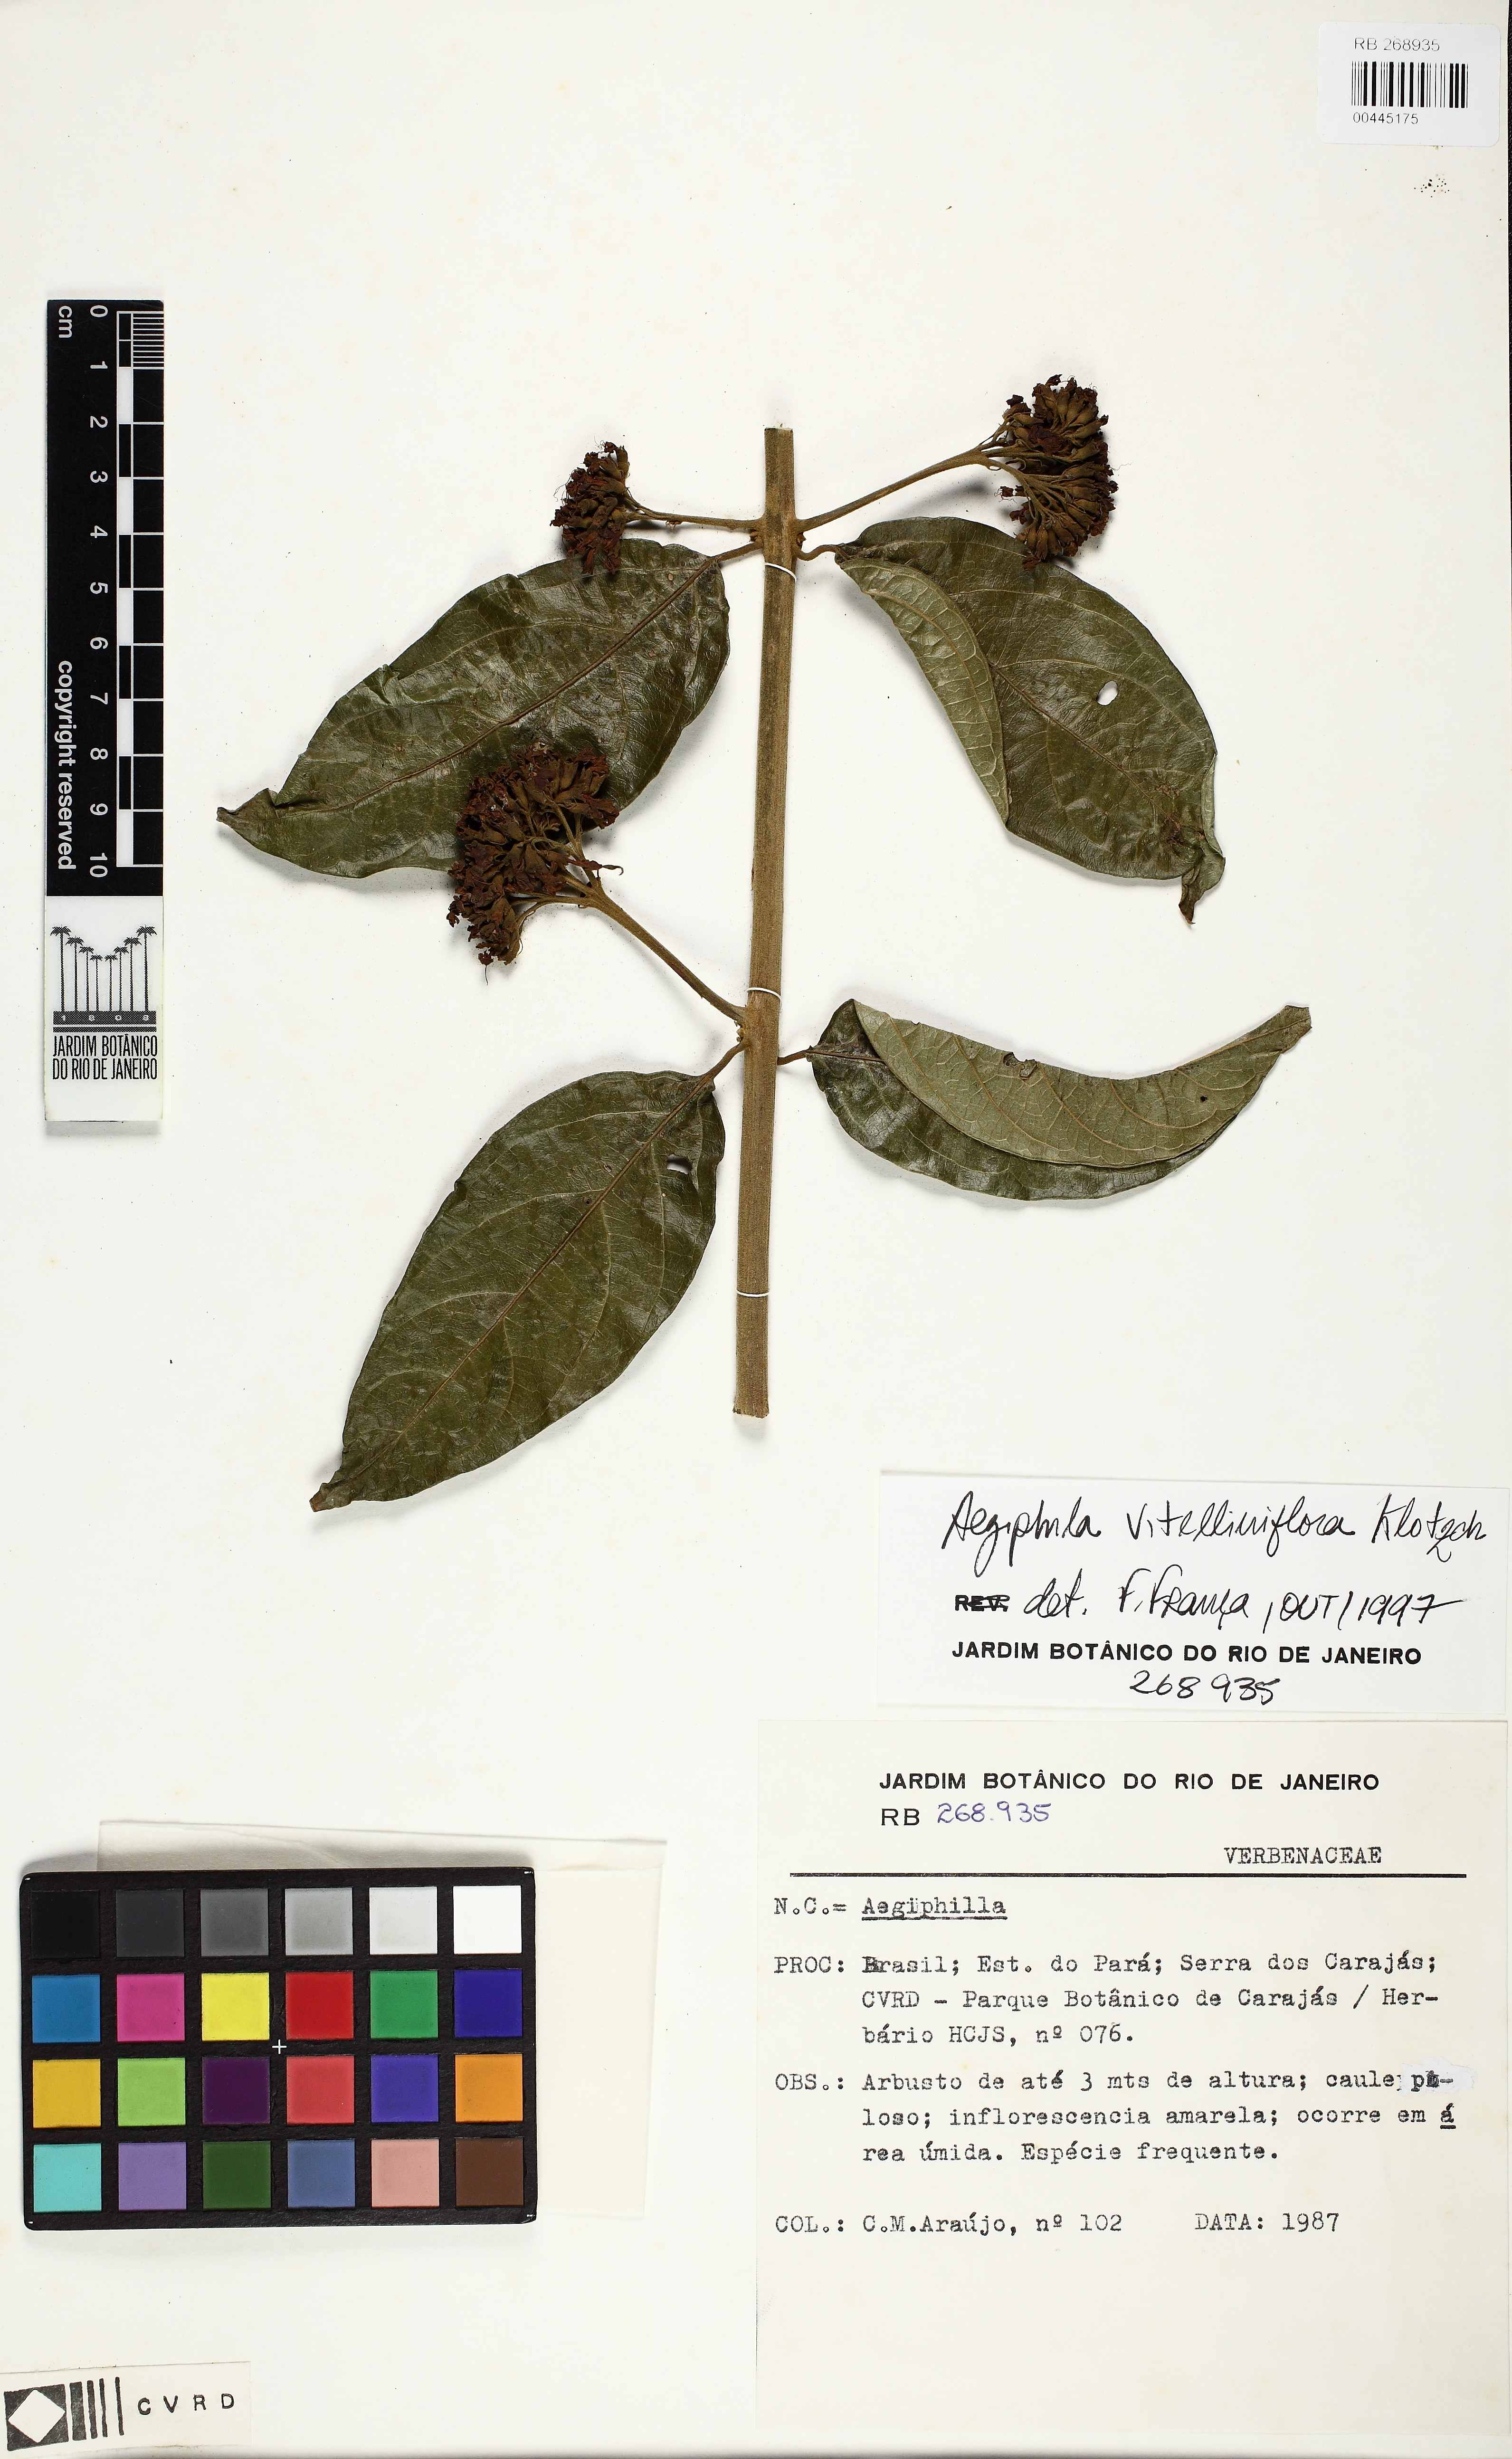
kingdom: Plantae
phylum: Tracheophyta
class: Magnoliopsida
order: Lamiales
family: Lamiaceae
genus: Aegiphila
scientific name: Aegiphila vitelliniflora
